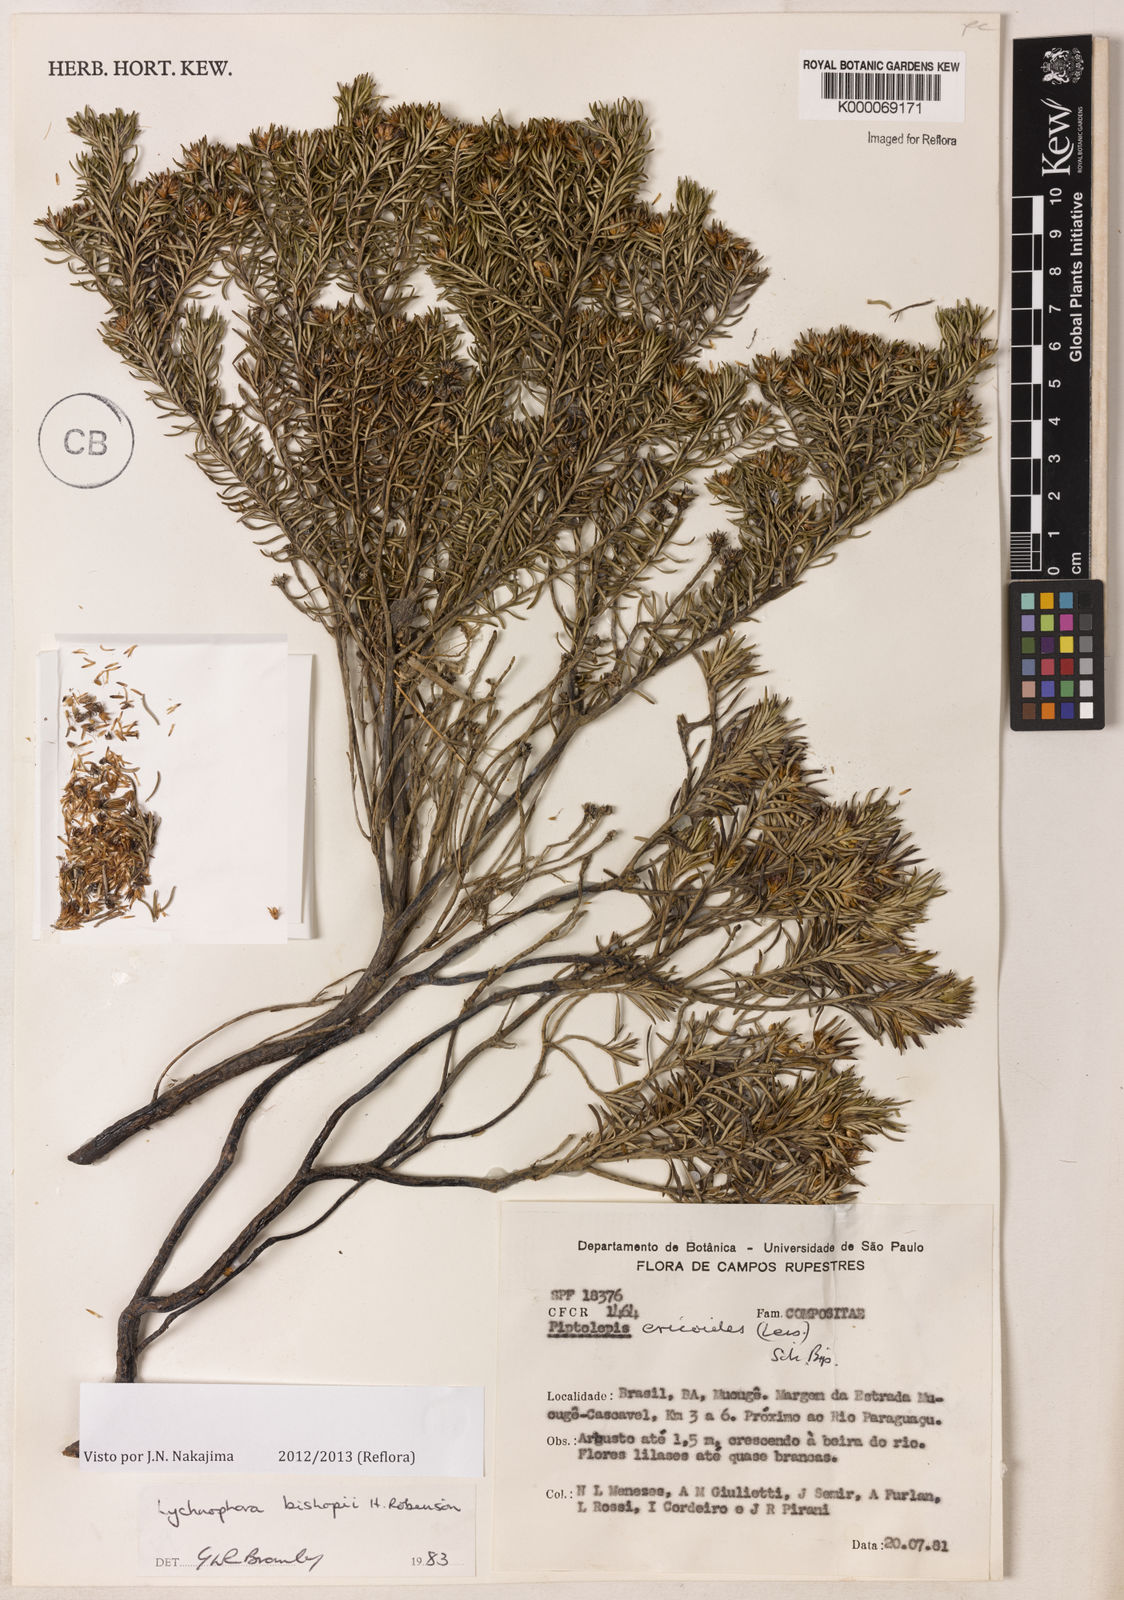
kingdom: Plantae
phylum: Tracheophyta
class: Magnoliopsida
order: Asterales
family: Asteraceae
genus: Lychnophorella
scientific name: Lychnophorella bishopii
